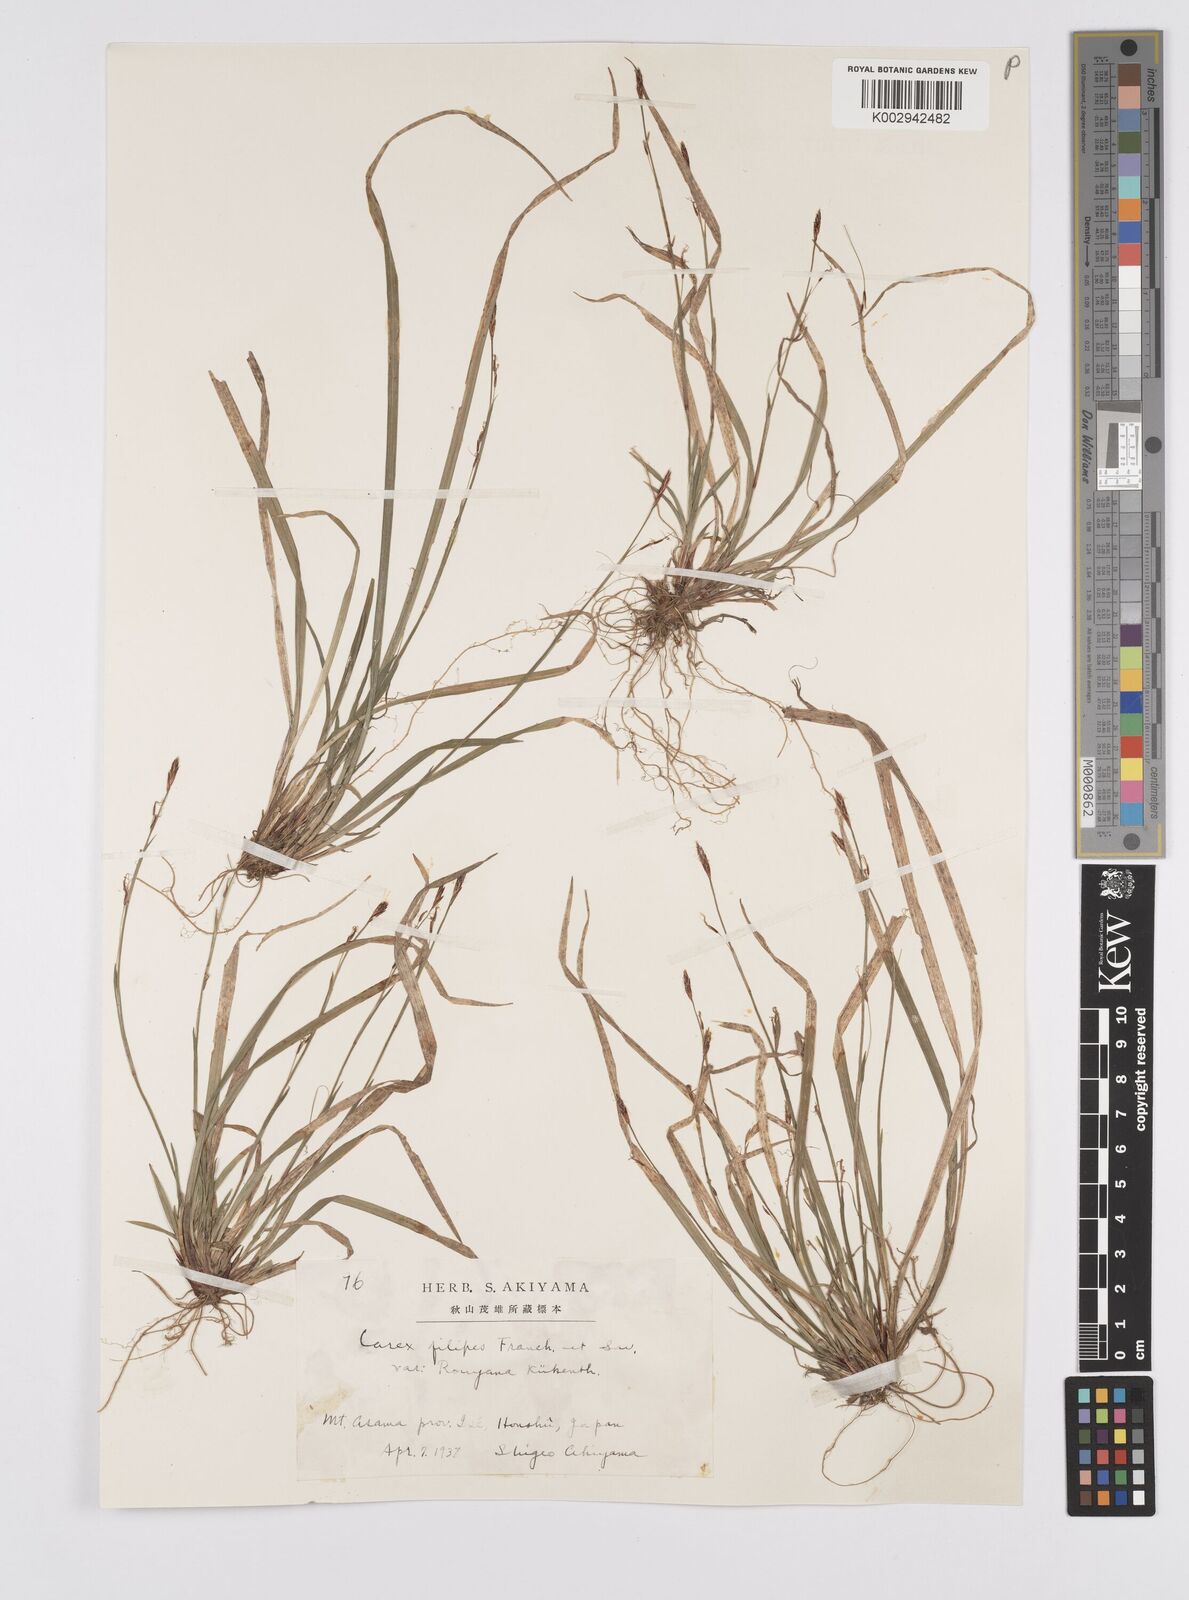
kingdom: Plantae
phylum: Tracheophyta
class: Liliopsida
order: Poales
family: Cyperaceae
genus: Carex
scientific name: Carex filipes
